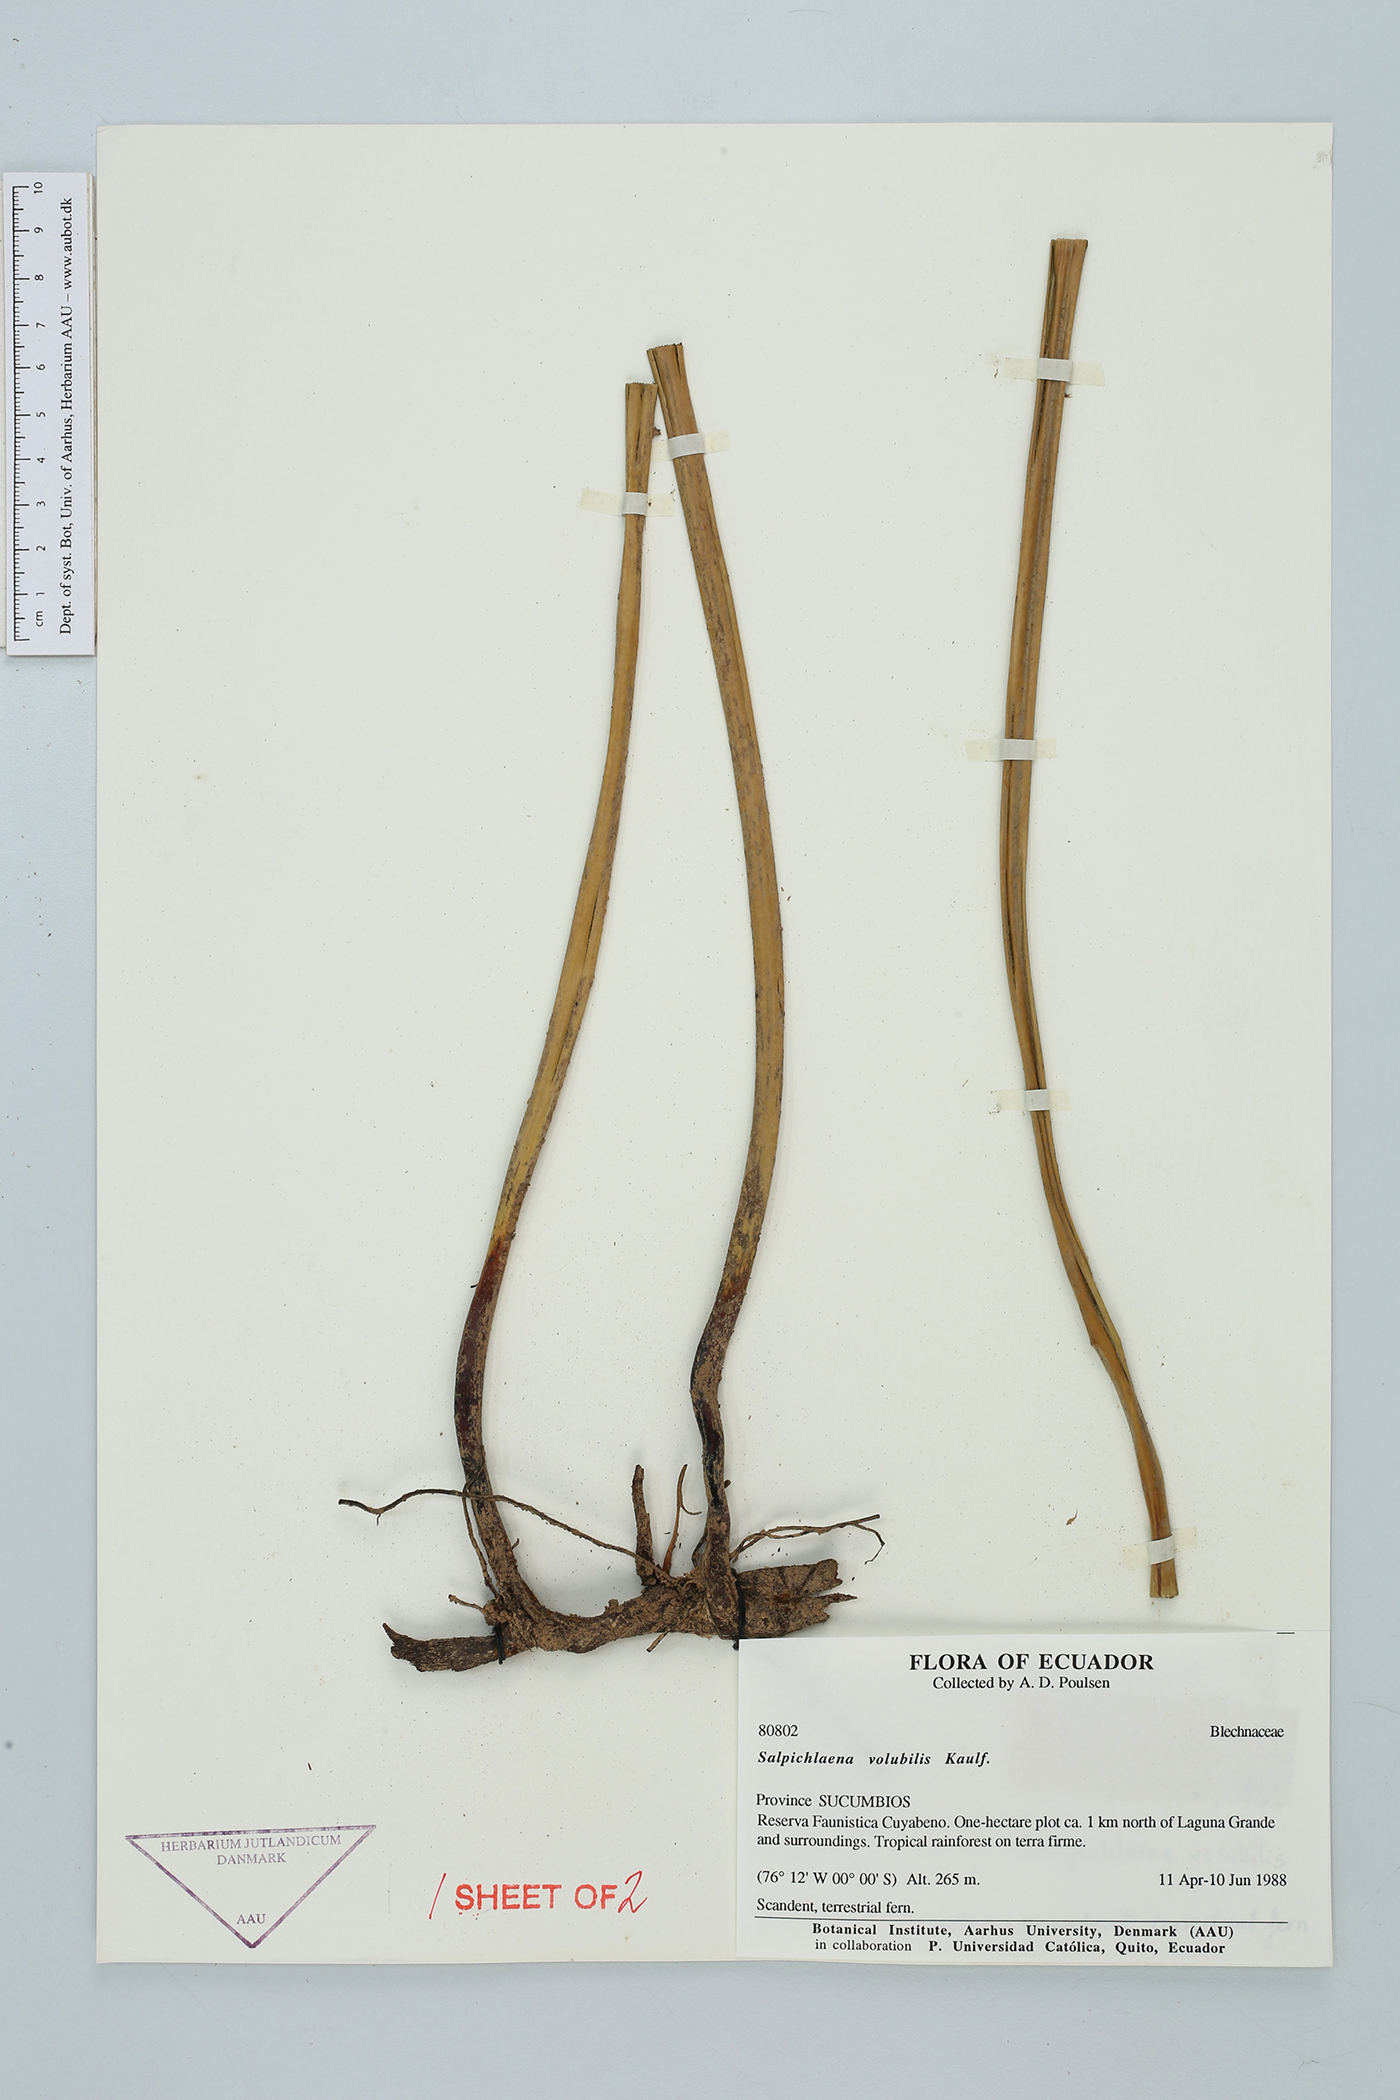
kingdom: Plantae
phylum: Tracheophyta
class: Polypodiopsida
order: Polypodiales
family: Blechnaceae
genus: Salpichlaena
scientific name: Salpichlaena volubilis
